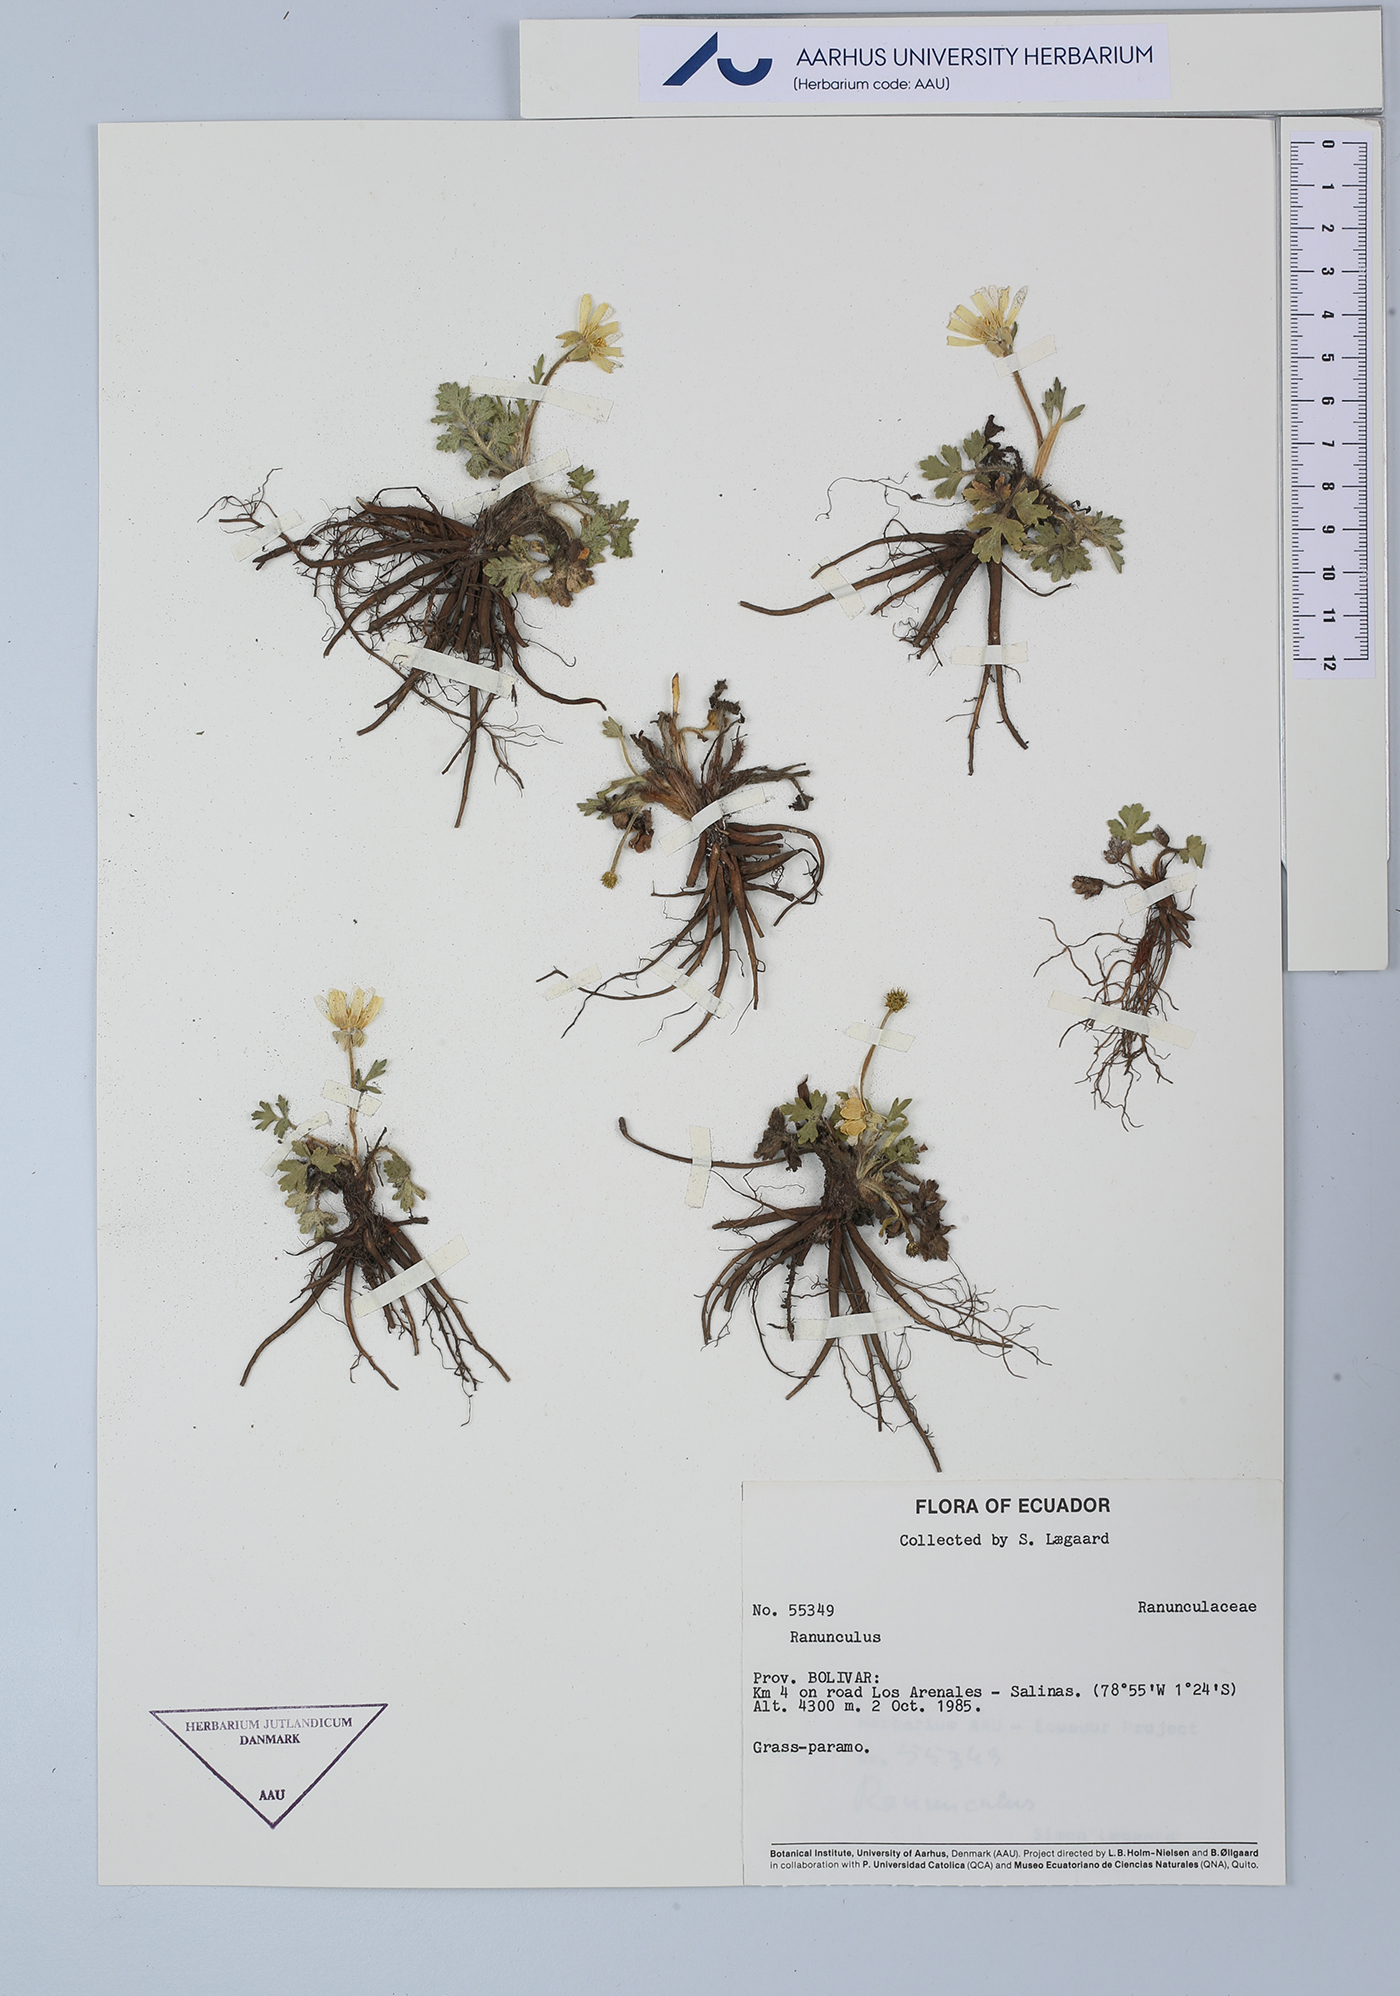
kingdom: Plantae
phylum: Tracheophyta
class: Magnoliopsida
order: Ranunculales
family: Ranunculaceae
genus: Ranunculus
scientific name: Ranunculus
